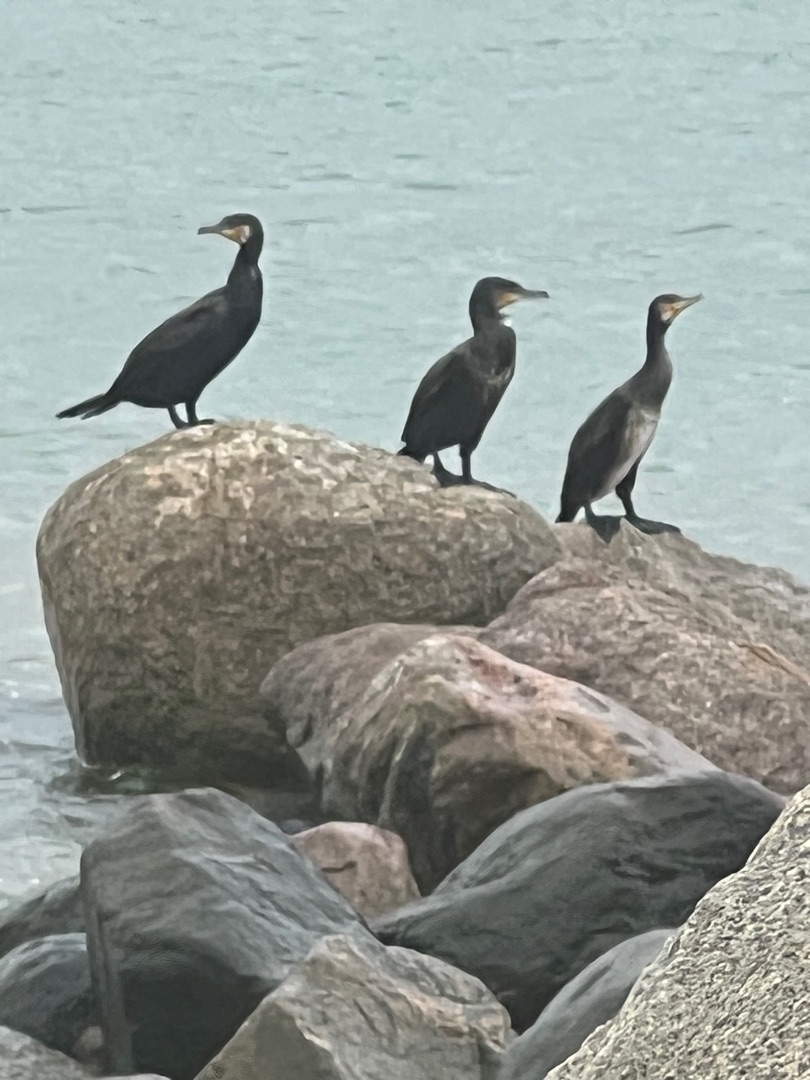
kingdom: Animalia
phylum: Chordata
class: Aves
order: Suliformes
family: Phalacrocoracidae
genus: Phalacrocorax
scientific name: Phalacrocorax carbo
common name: Skarv
